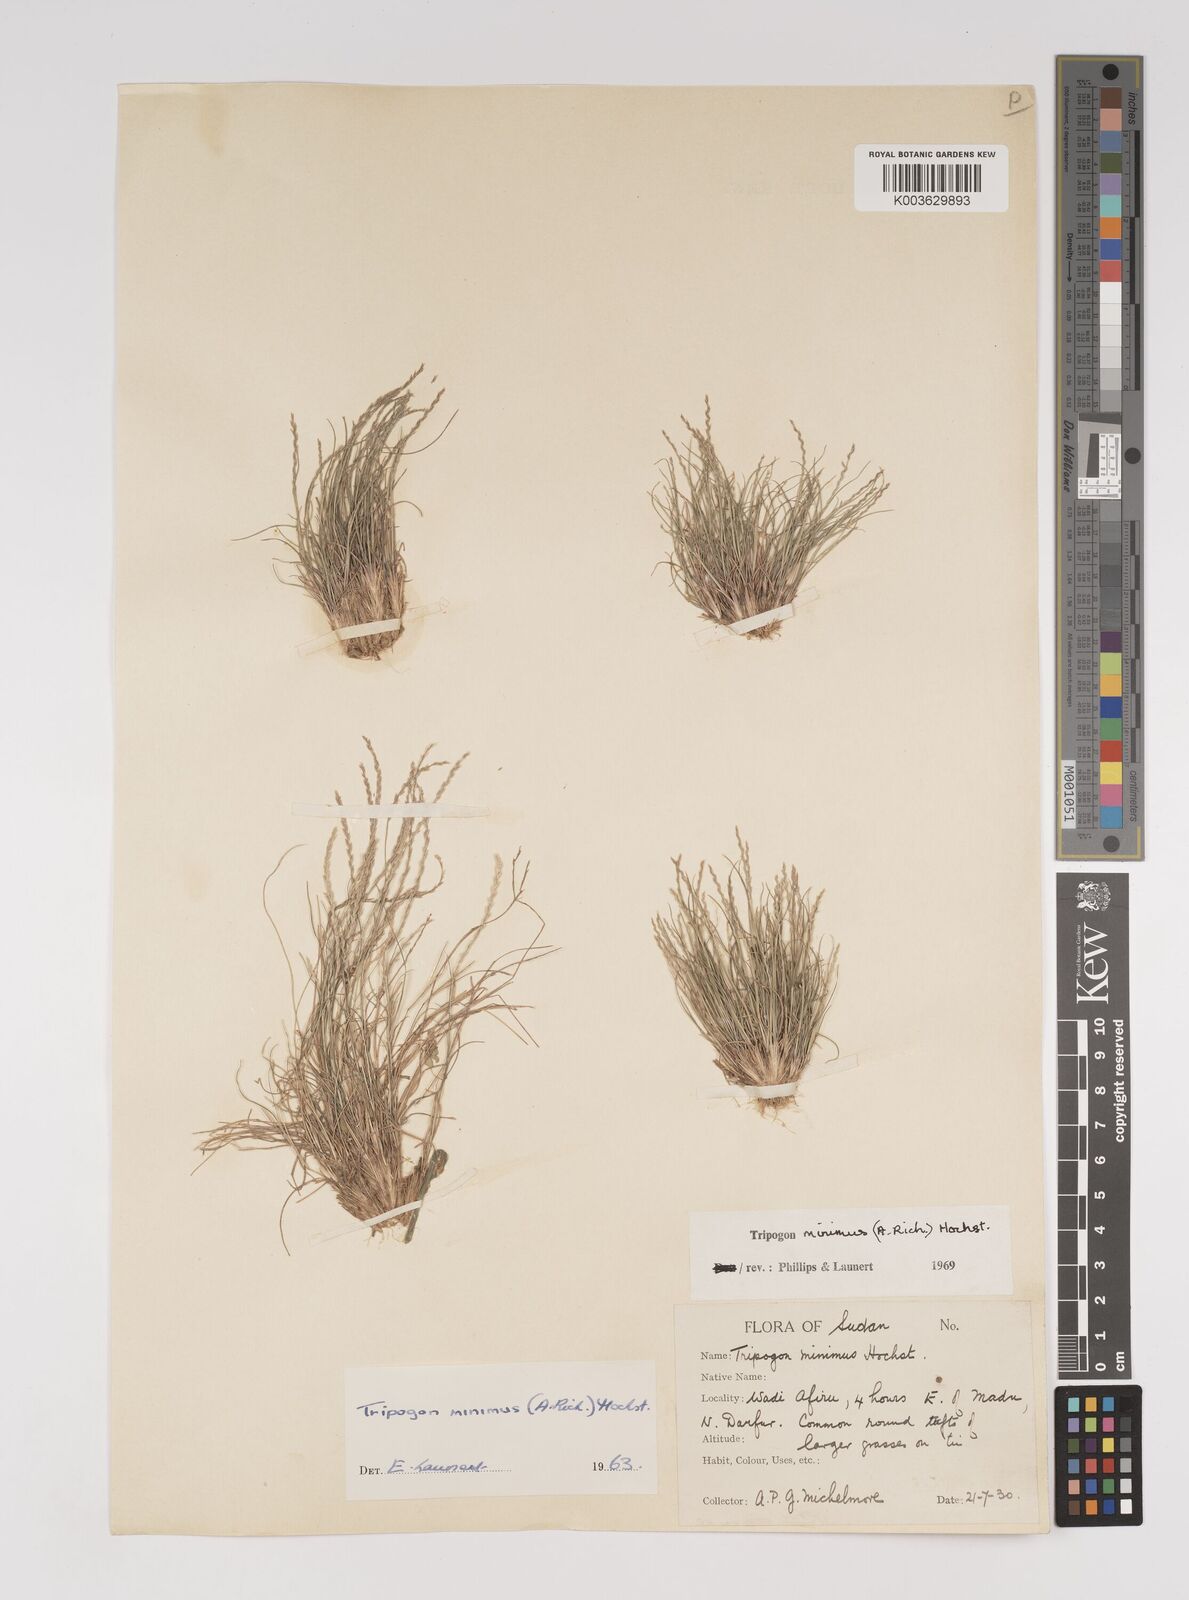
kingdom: Plantae
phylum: Tracheophyta
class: Liliopsida
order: Poales
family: Poaceae
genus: Tripogonella
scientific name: Tripogonella minima
